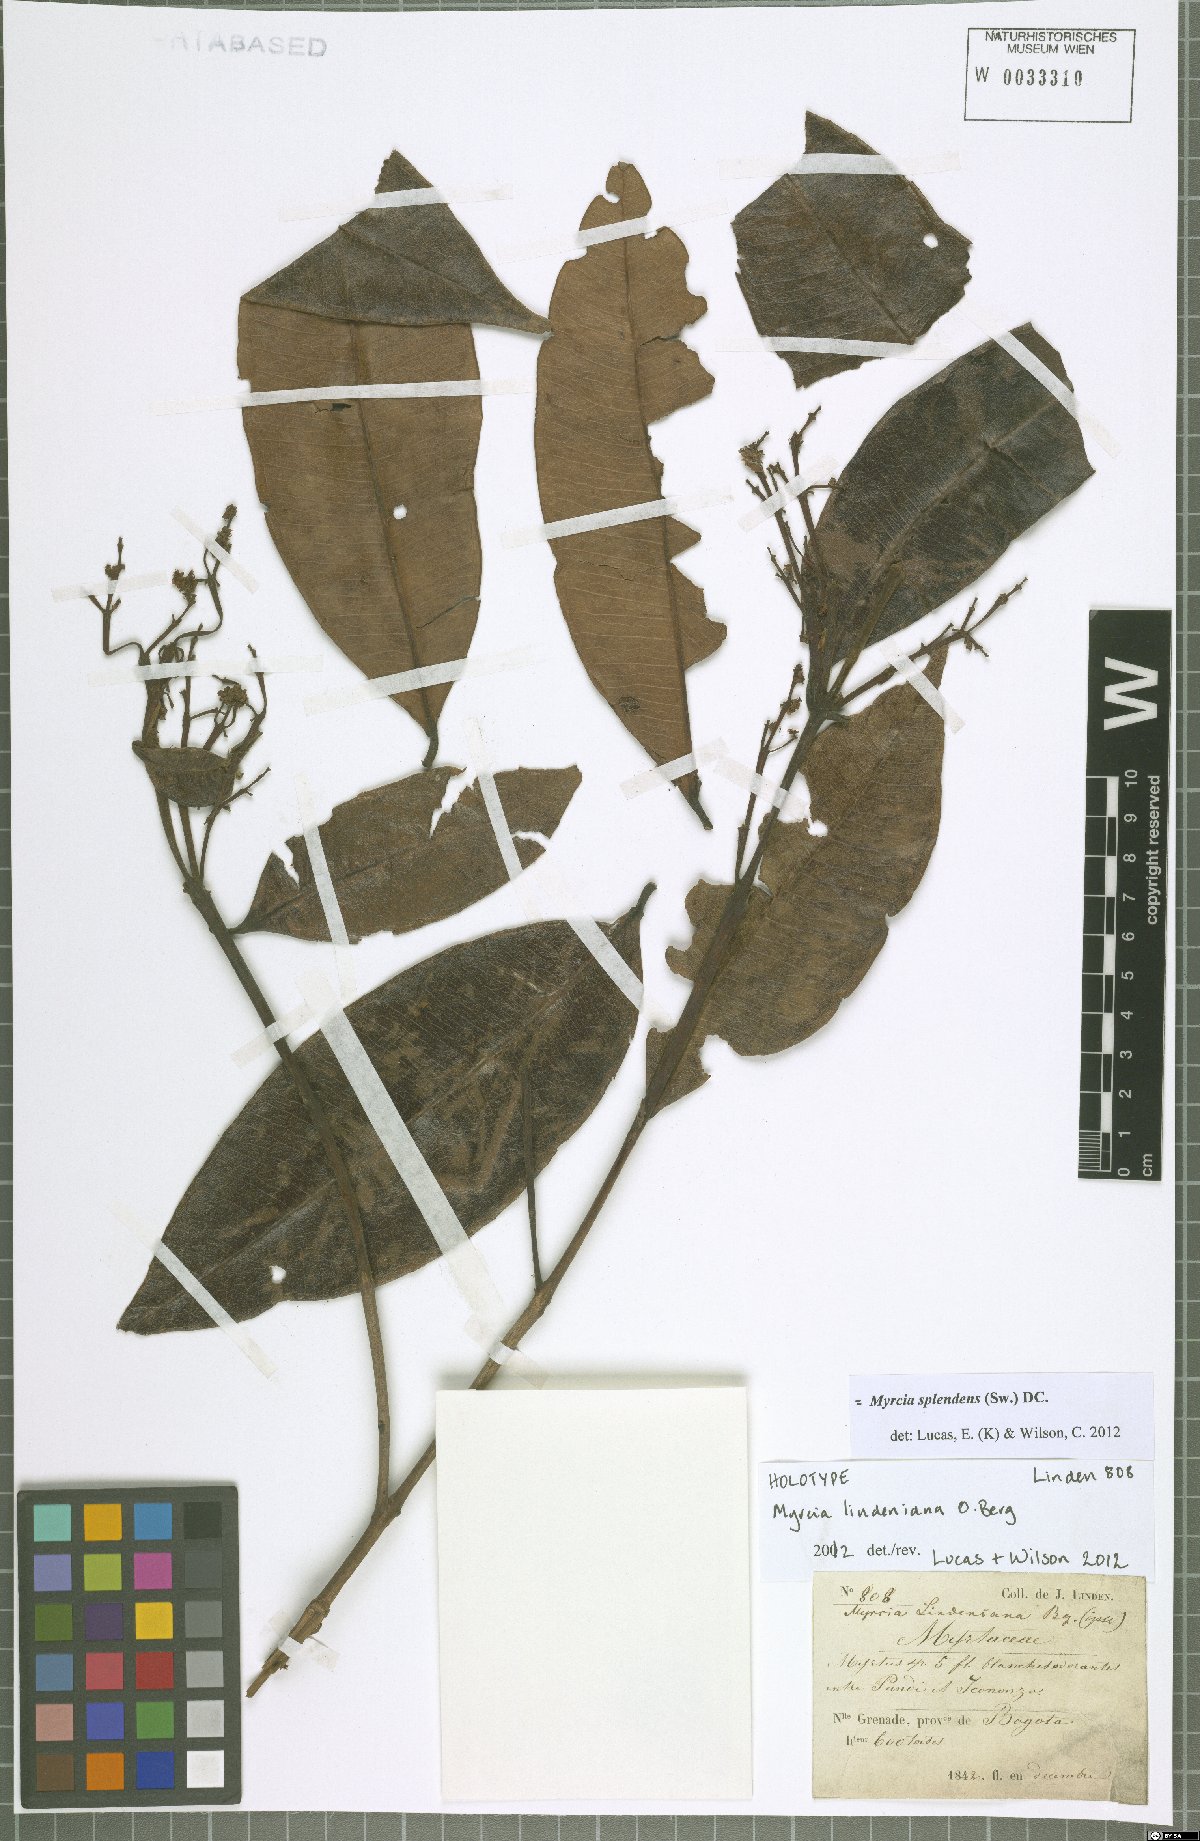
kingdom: Plantae
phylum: Tracheophyta
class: Magnoliopsida
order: Myrtales
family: Myrtaceae
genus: Myrcia
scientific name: Myrcia splendens
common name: Surinam cherry
